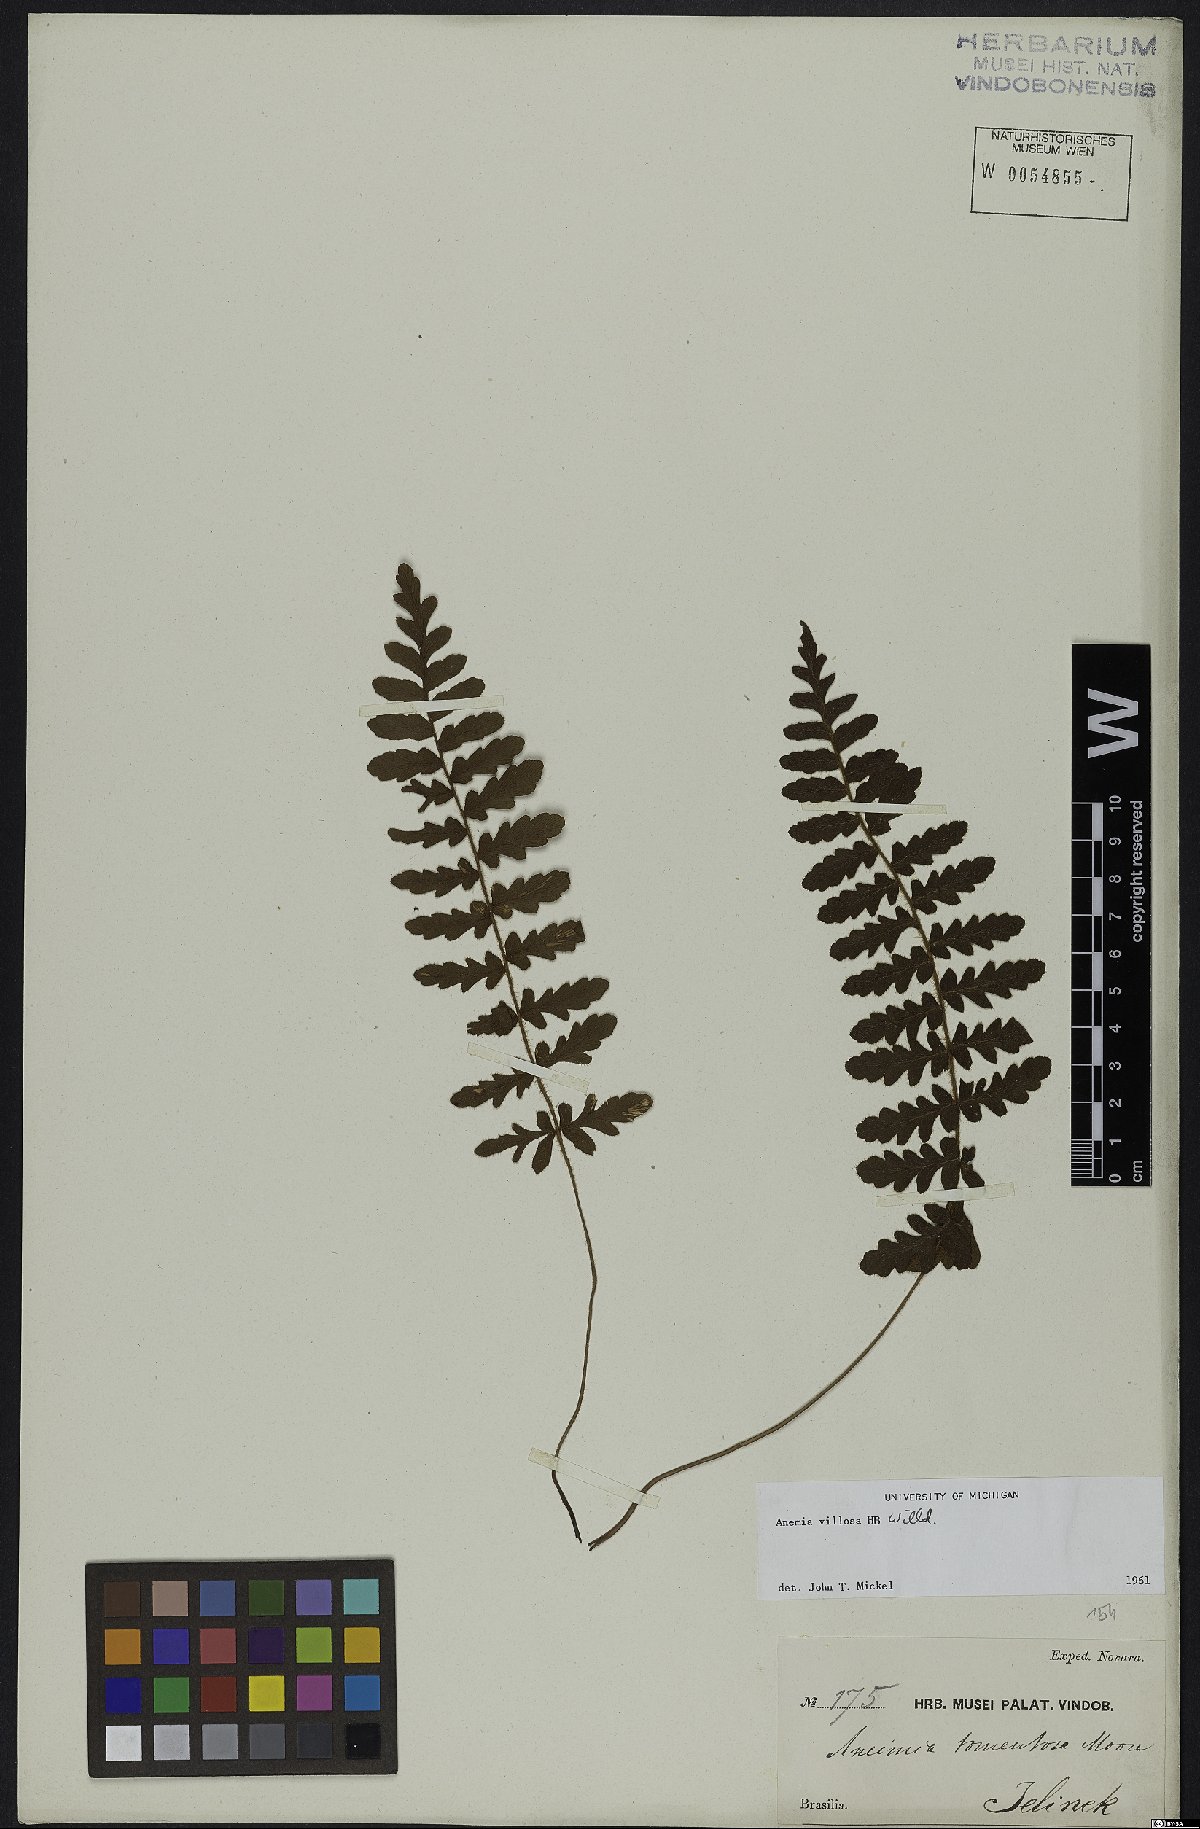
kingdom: Plantae
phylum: Tracheophyta
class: Polypodiopsida
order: Schizaeales
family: Anemiaceae
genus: Anemia
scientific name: Anemia villosa
